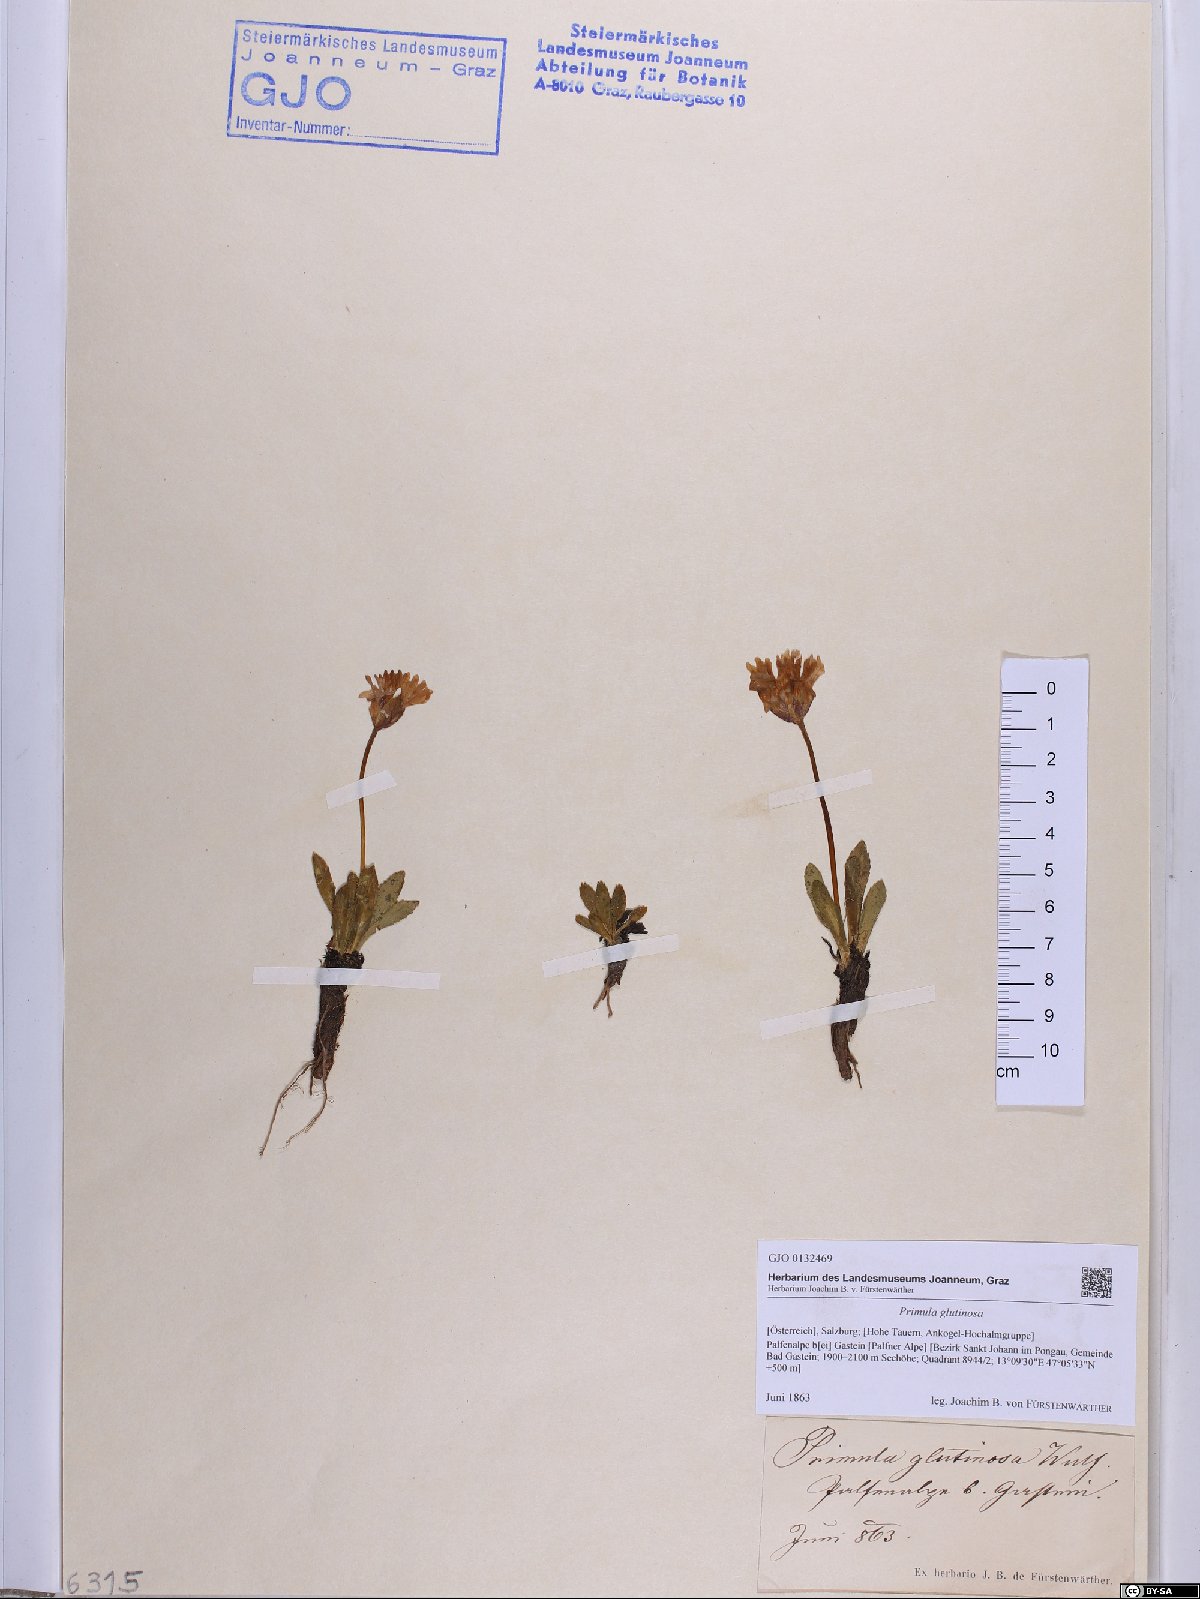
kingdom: Plantae
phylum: Tracheophyta
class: Magnoliopsida
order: Ericales
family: Primulaceae
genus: Primula
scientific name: Primula glutinosa
